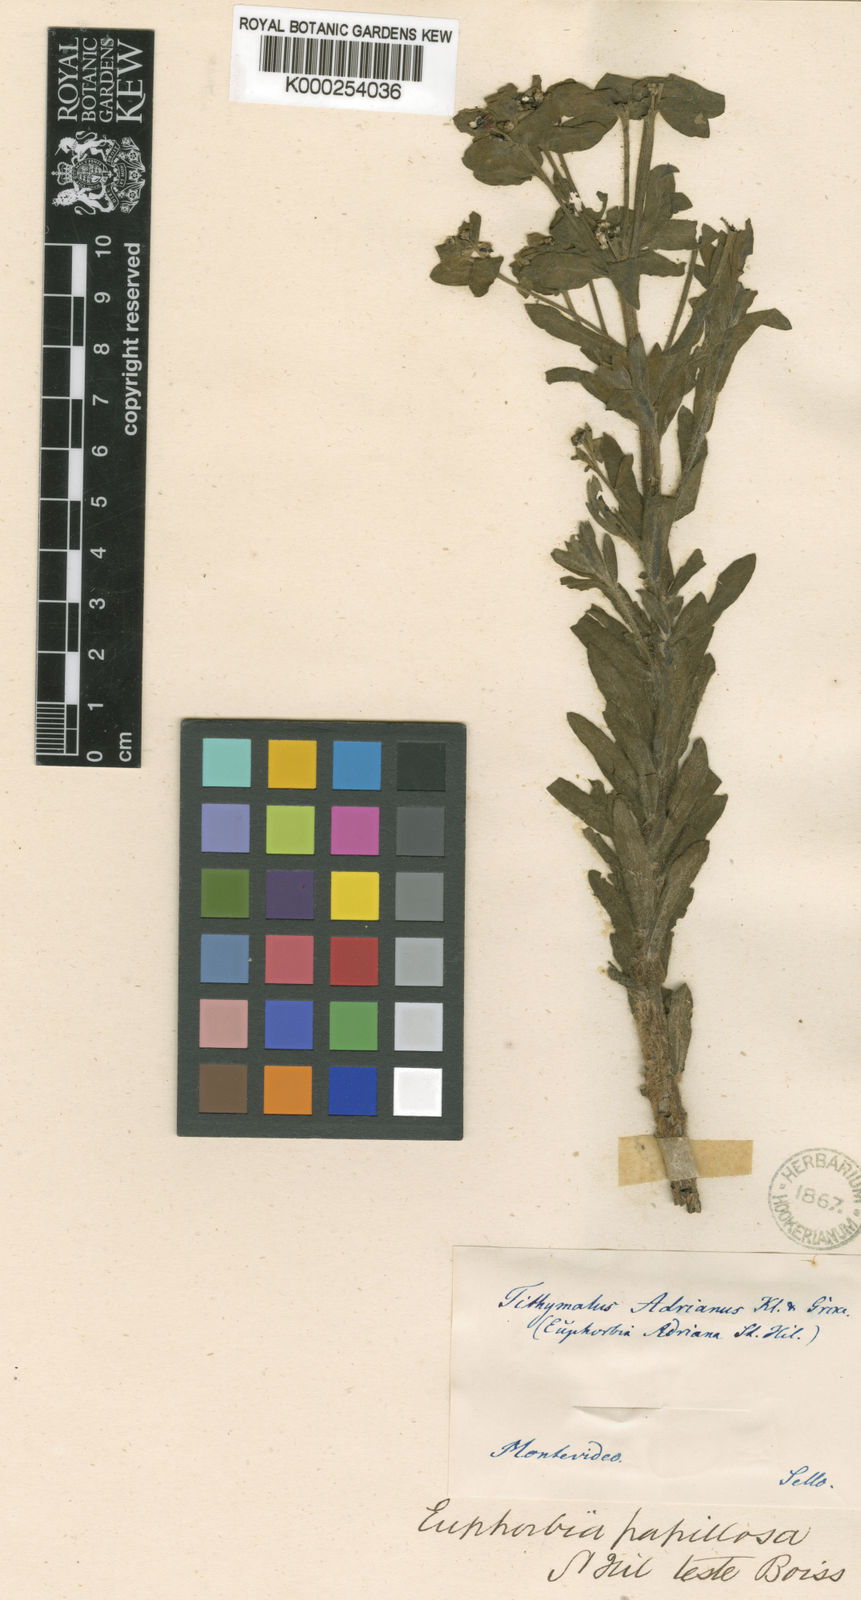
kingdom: Plantae
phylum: Tracheophyta
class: Magnoliopsida
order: Malpighiales
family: Euphorbiaceae
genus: Euphorbia
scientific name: Euphorbia papillosa
